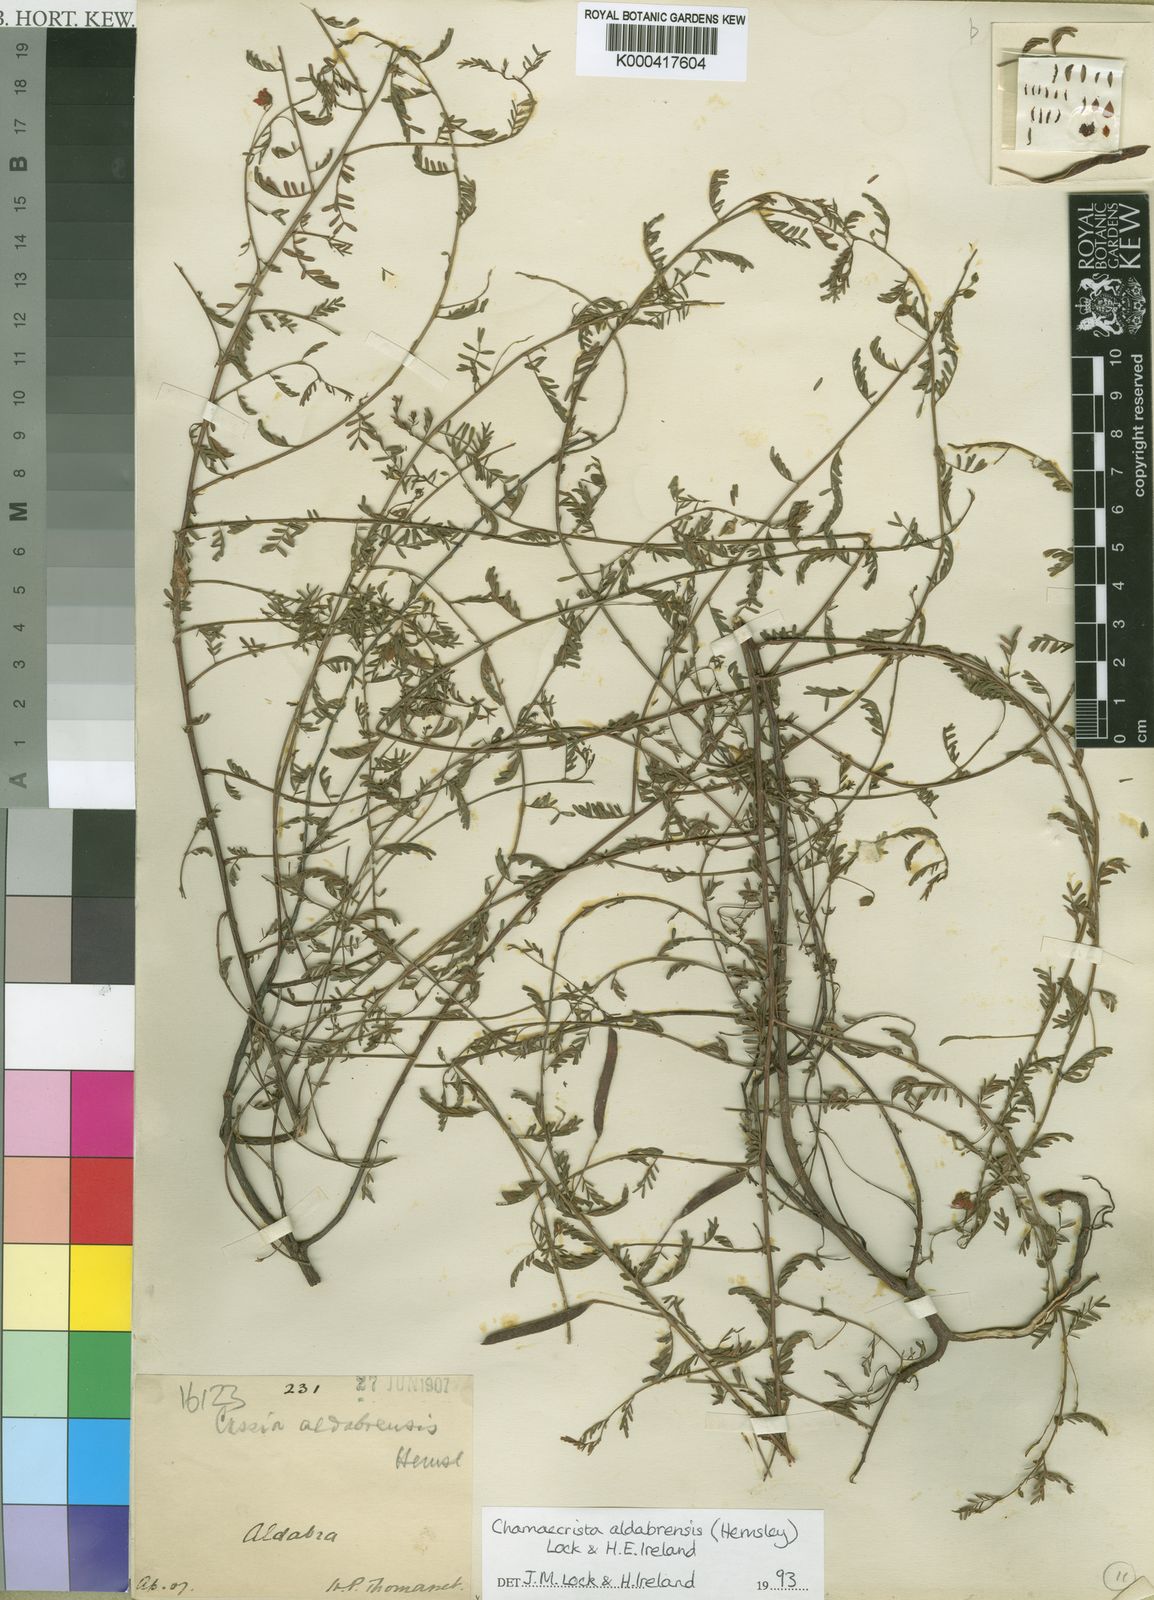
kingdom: Plantae
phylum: Tracheophyta
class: Magnoliopsida
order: Fabales
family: Fabaceae
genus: Chamaecrista
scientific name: Chamaecrista aldabrensis
